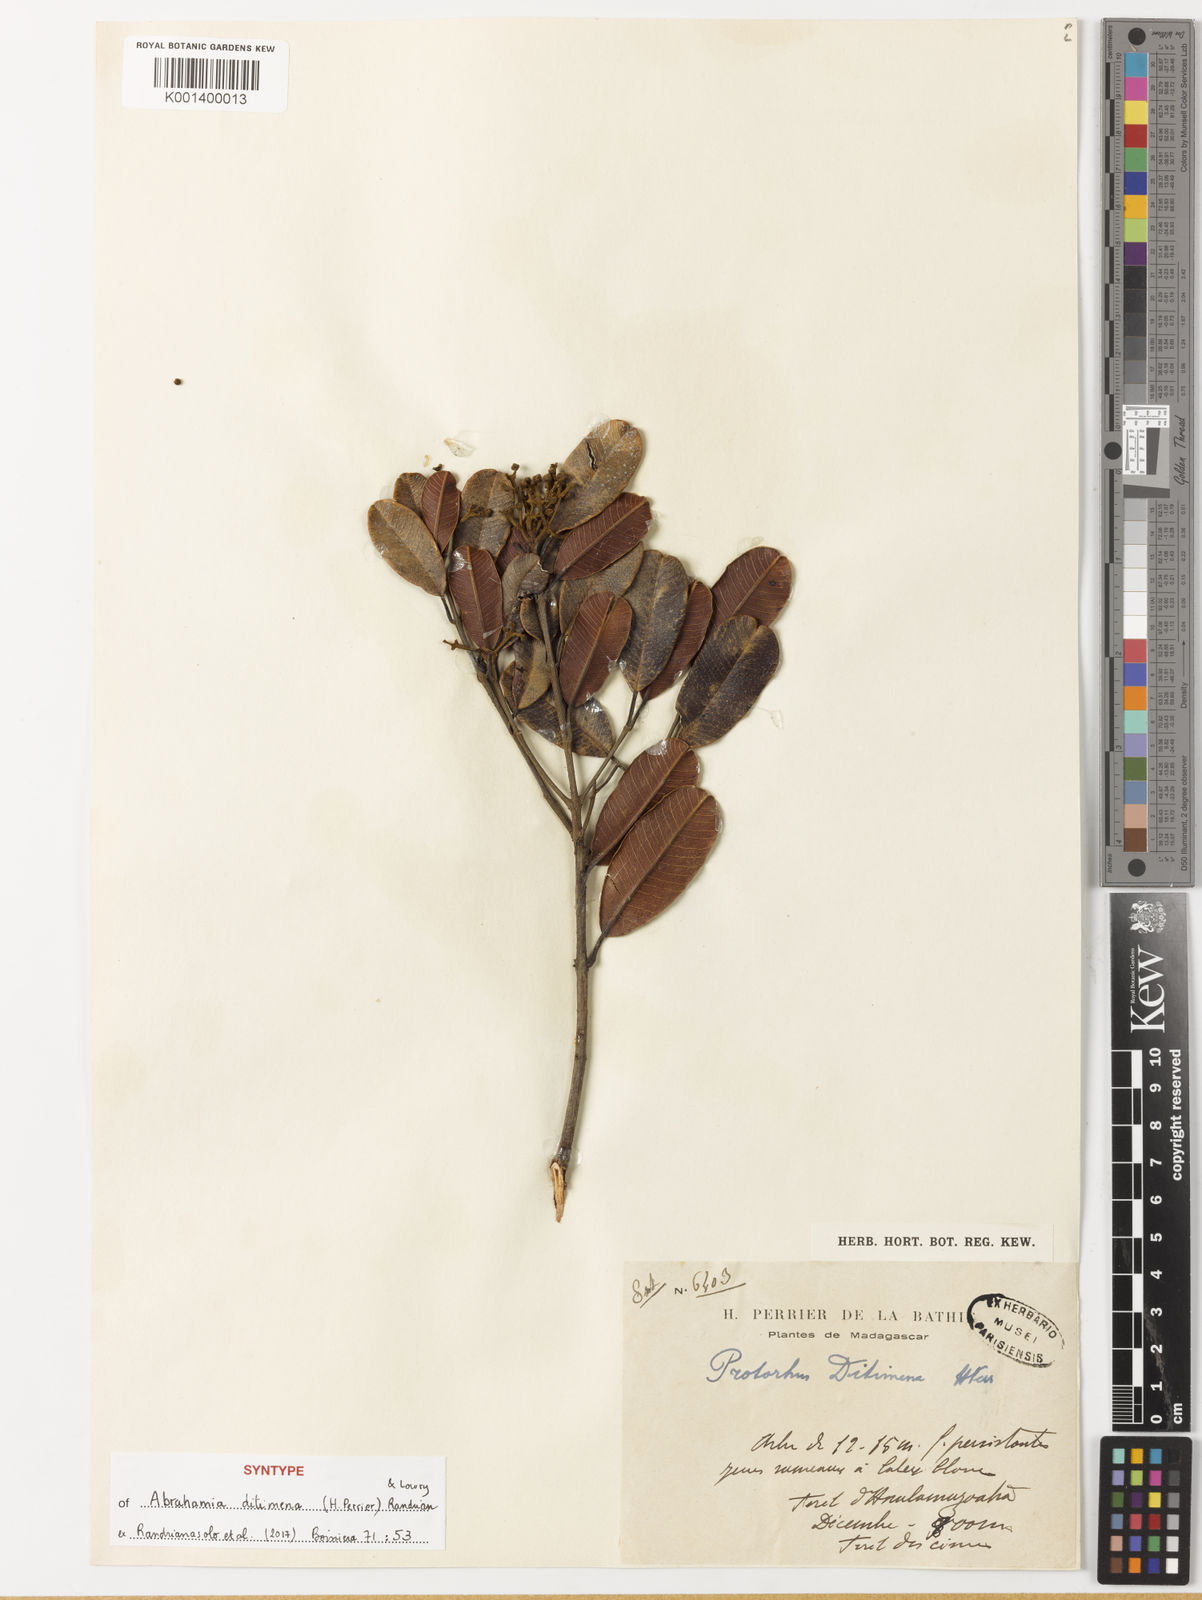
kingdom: Plantae
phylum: Tracheophyta
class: Magnoliopsida
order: Sapindales
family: Anacardiaceae
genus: Abrahamia
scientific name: Abrahamia
